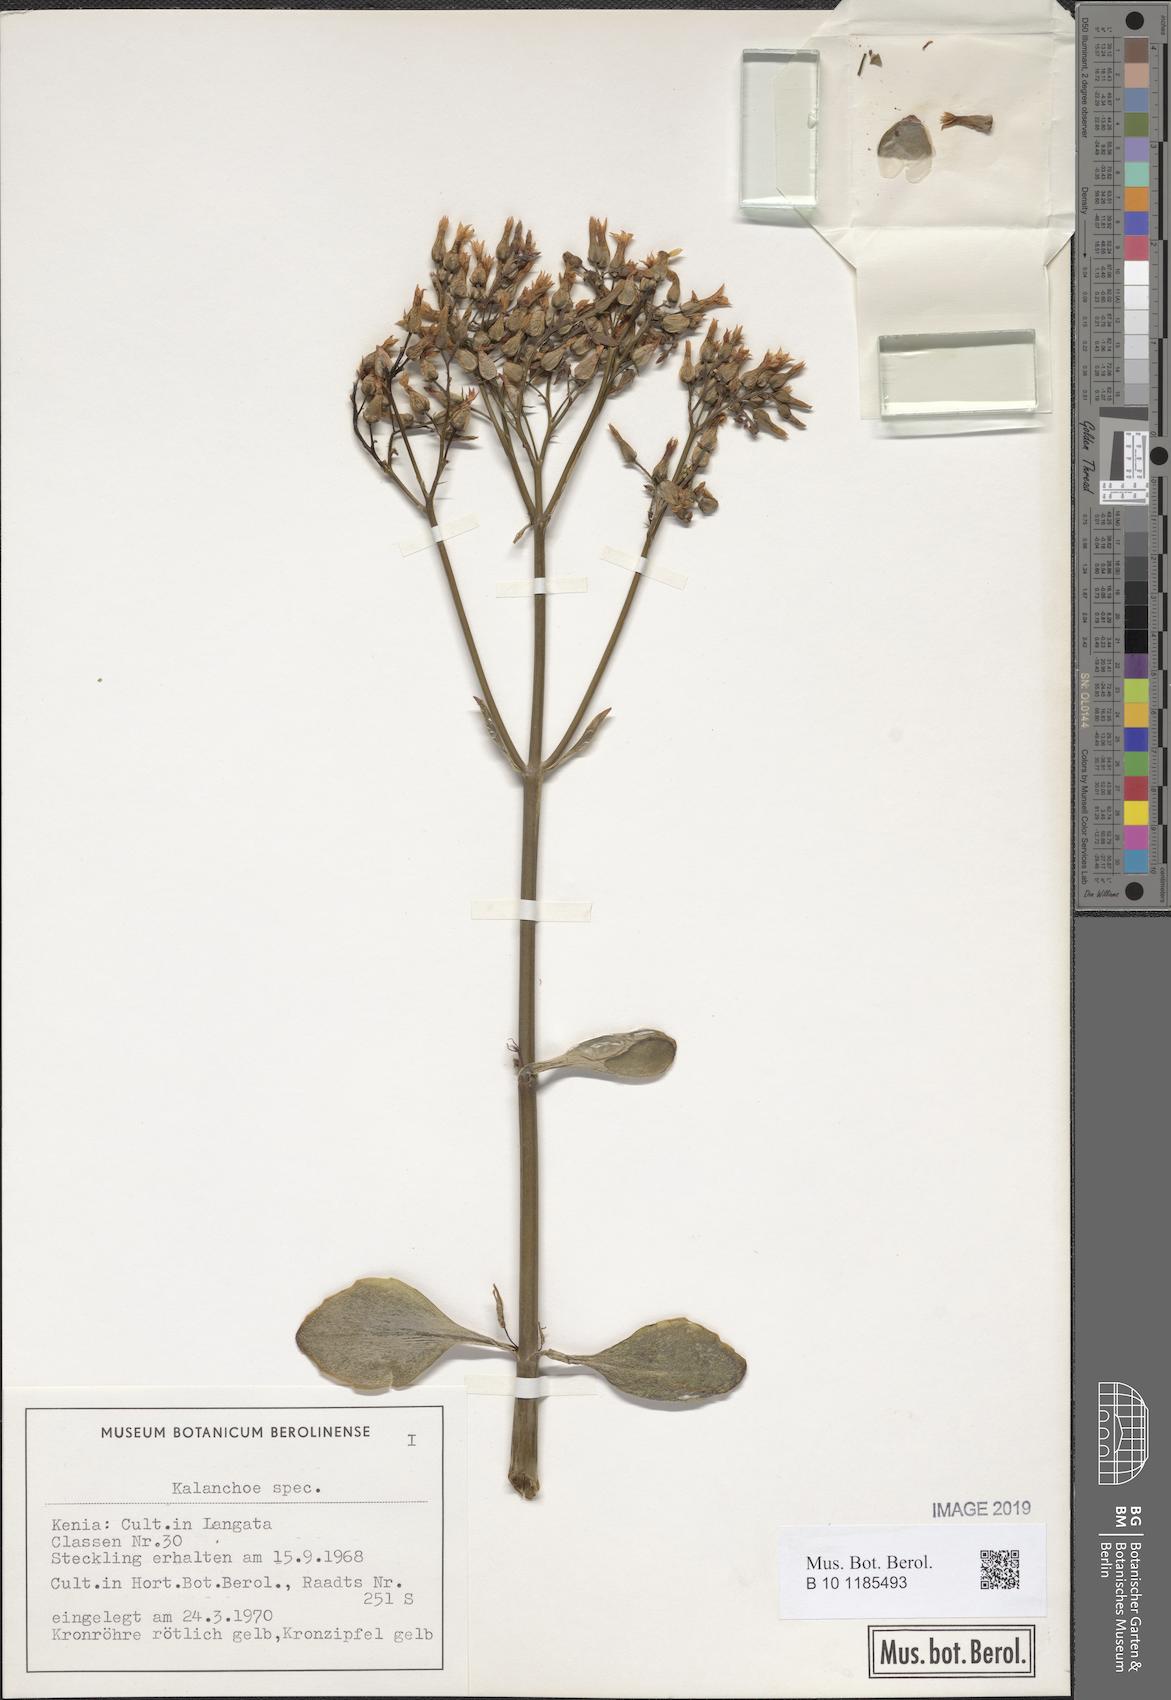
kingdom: Plantae
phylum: Tracheophyta
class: Magnoliopsida
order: Saxifragales
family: Crassulaceae
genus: Kalanchoe
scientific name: Kalanchoe
